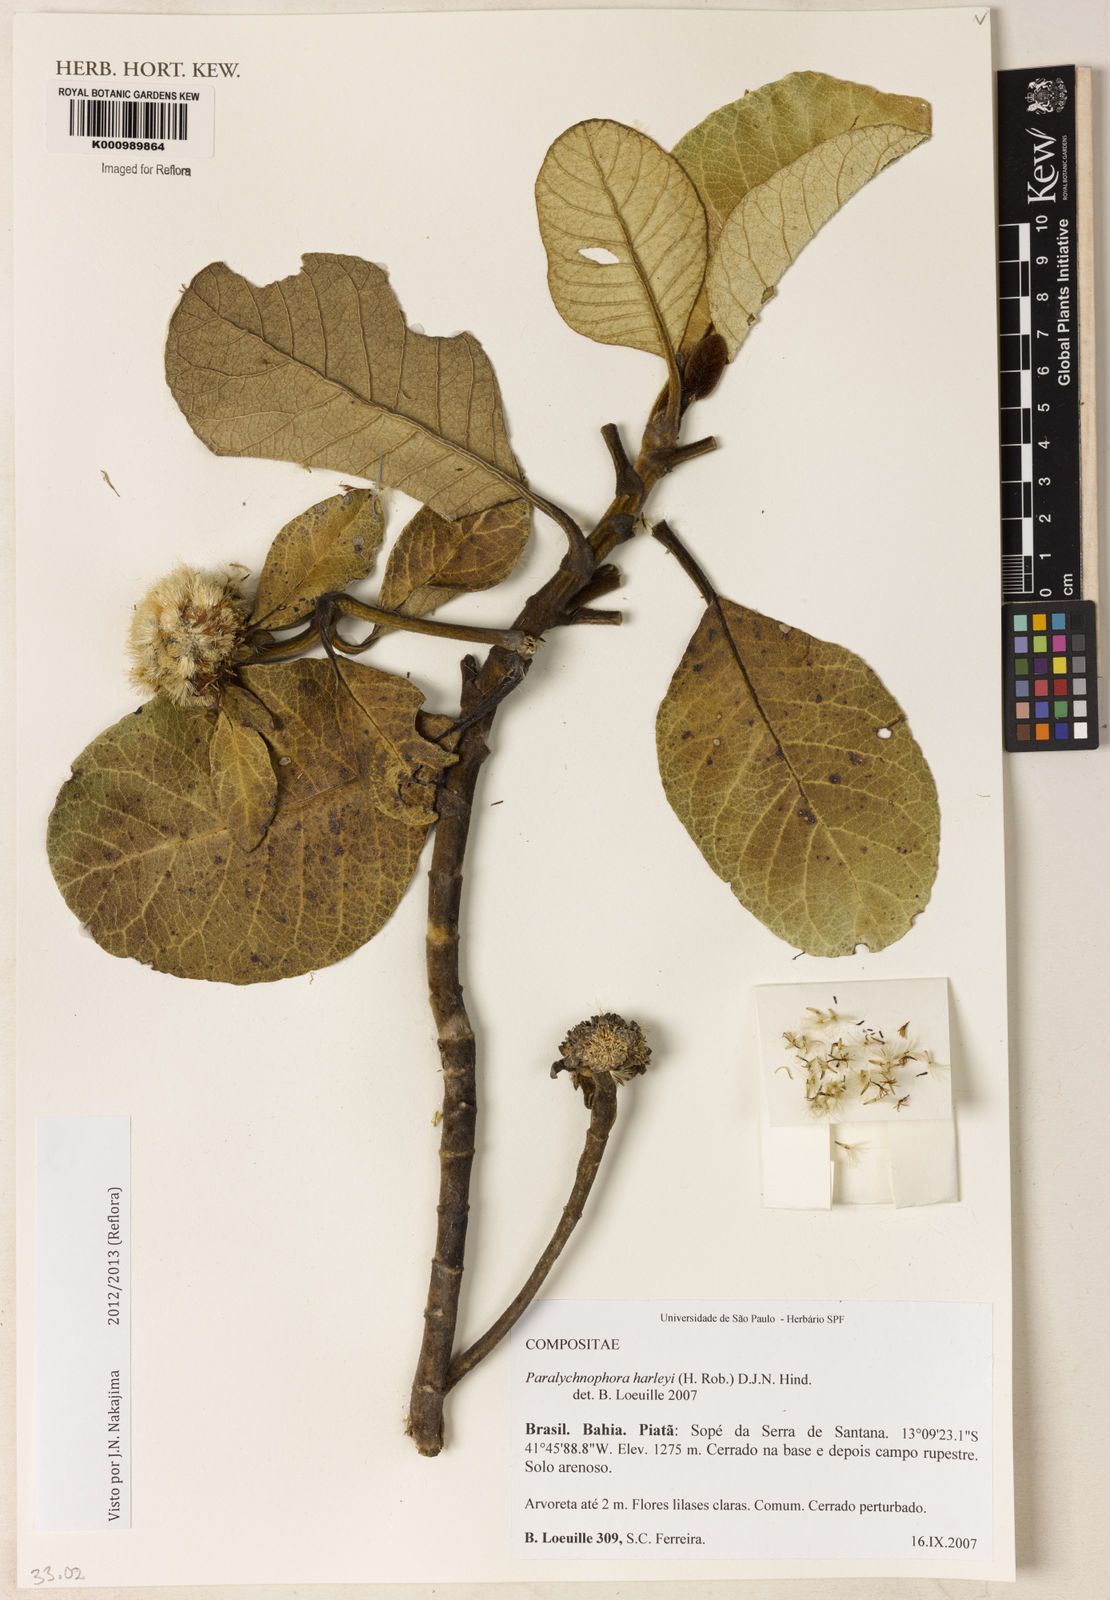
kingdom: Plantae
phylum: Tracheophyta
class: Magnoliopsida
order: Asterales
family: Asteraceae
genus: Paralychnophora
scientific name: Paralychnophora harleyi
